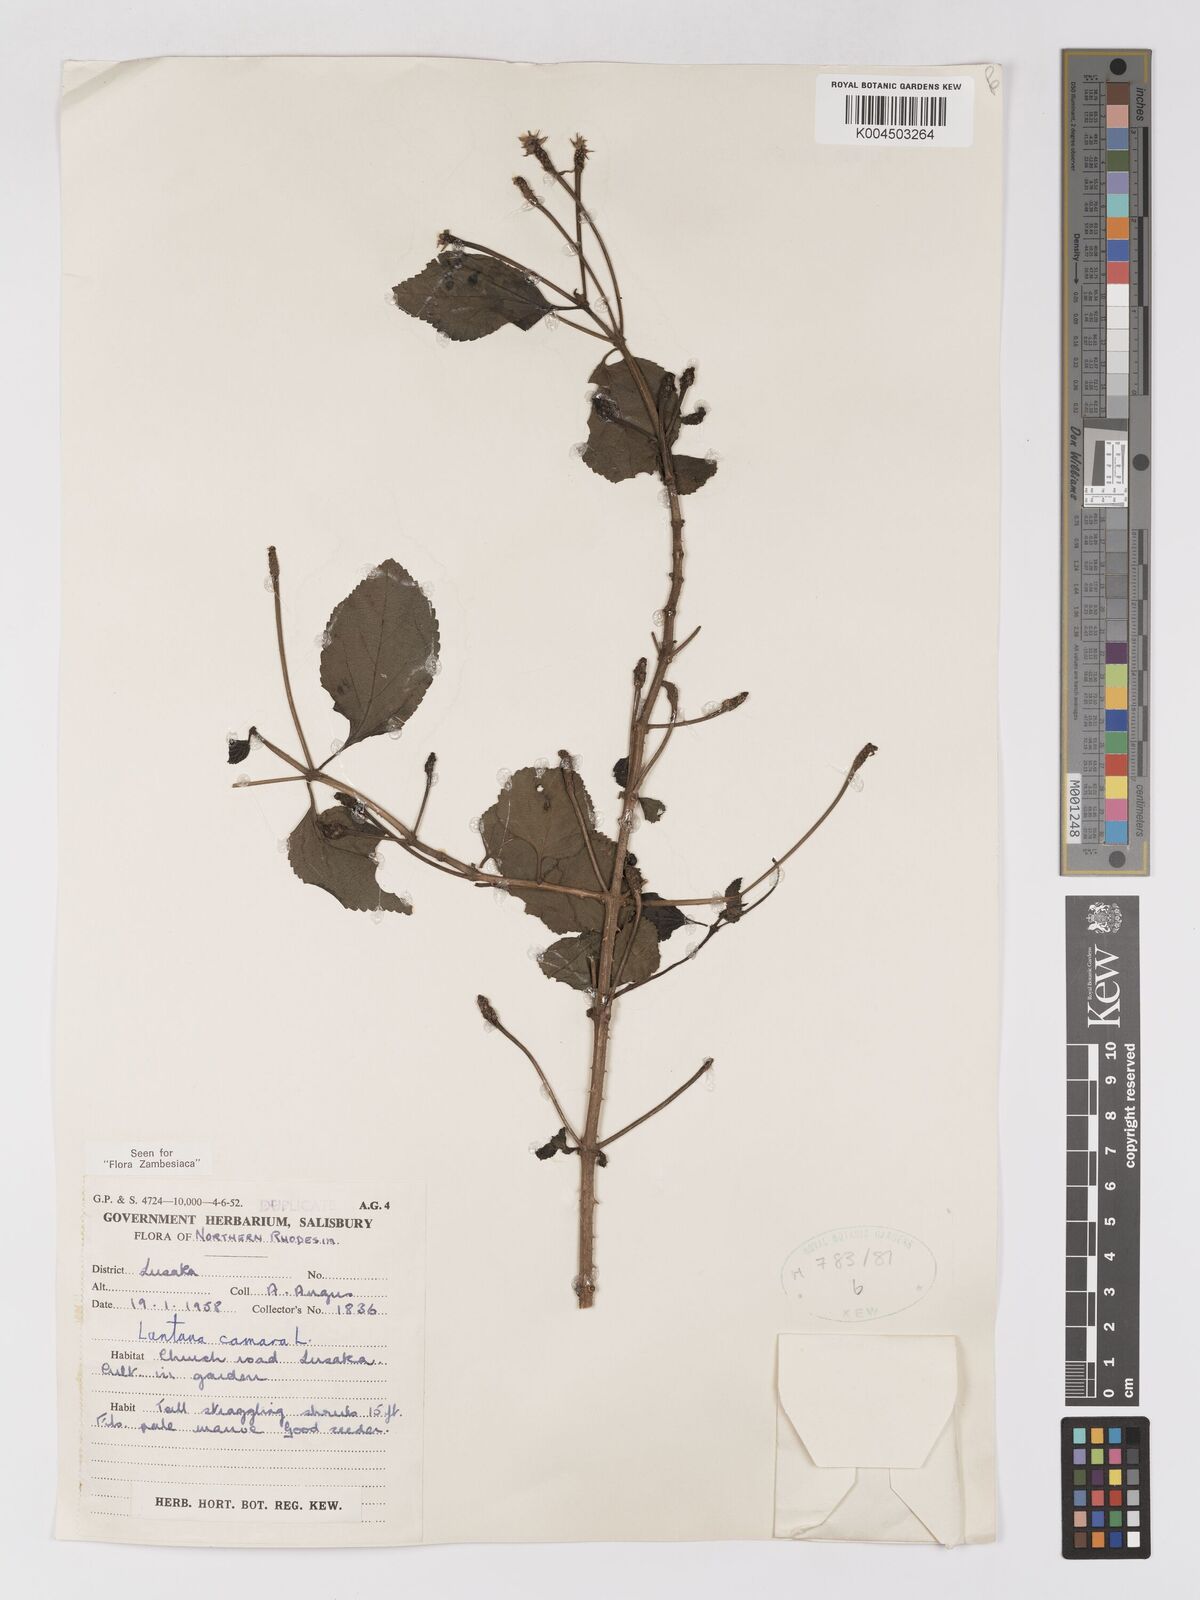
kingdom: Plantae
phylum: Tracheophyta
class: Magnoliopsida
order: Lamiales
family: Verbenaceae
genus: Lantana
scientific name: Lantana camara
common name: Lantana
